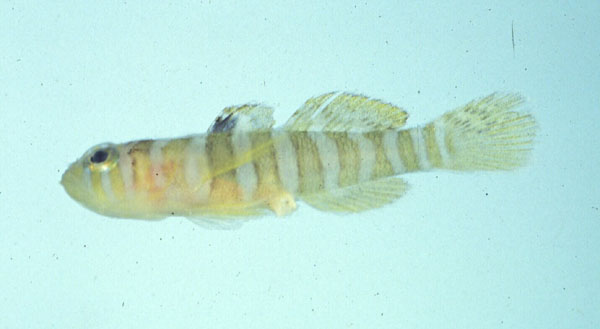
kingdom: Animalia
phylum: Chordata
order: Perciformes
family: Gobiidae
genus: Priolepis
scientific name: Priolepis cincta
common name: Banded reef-goby
